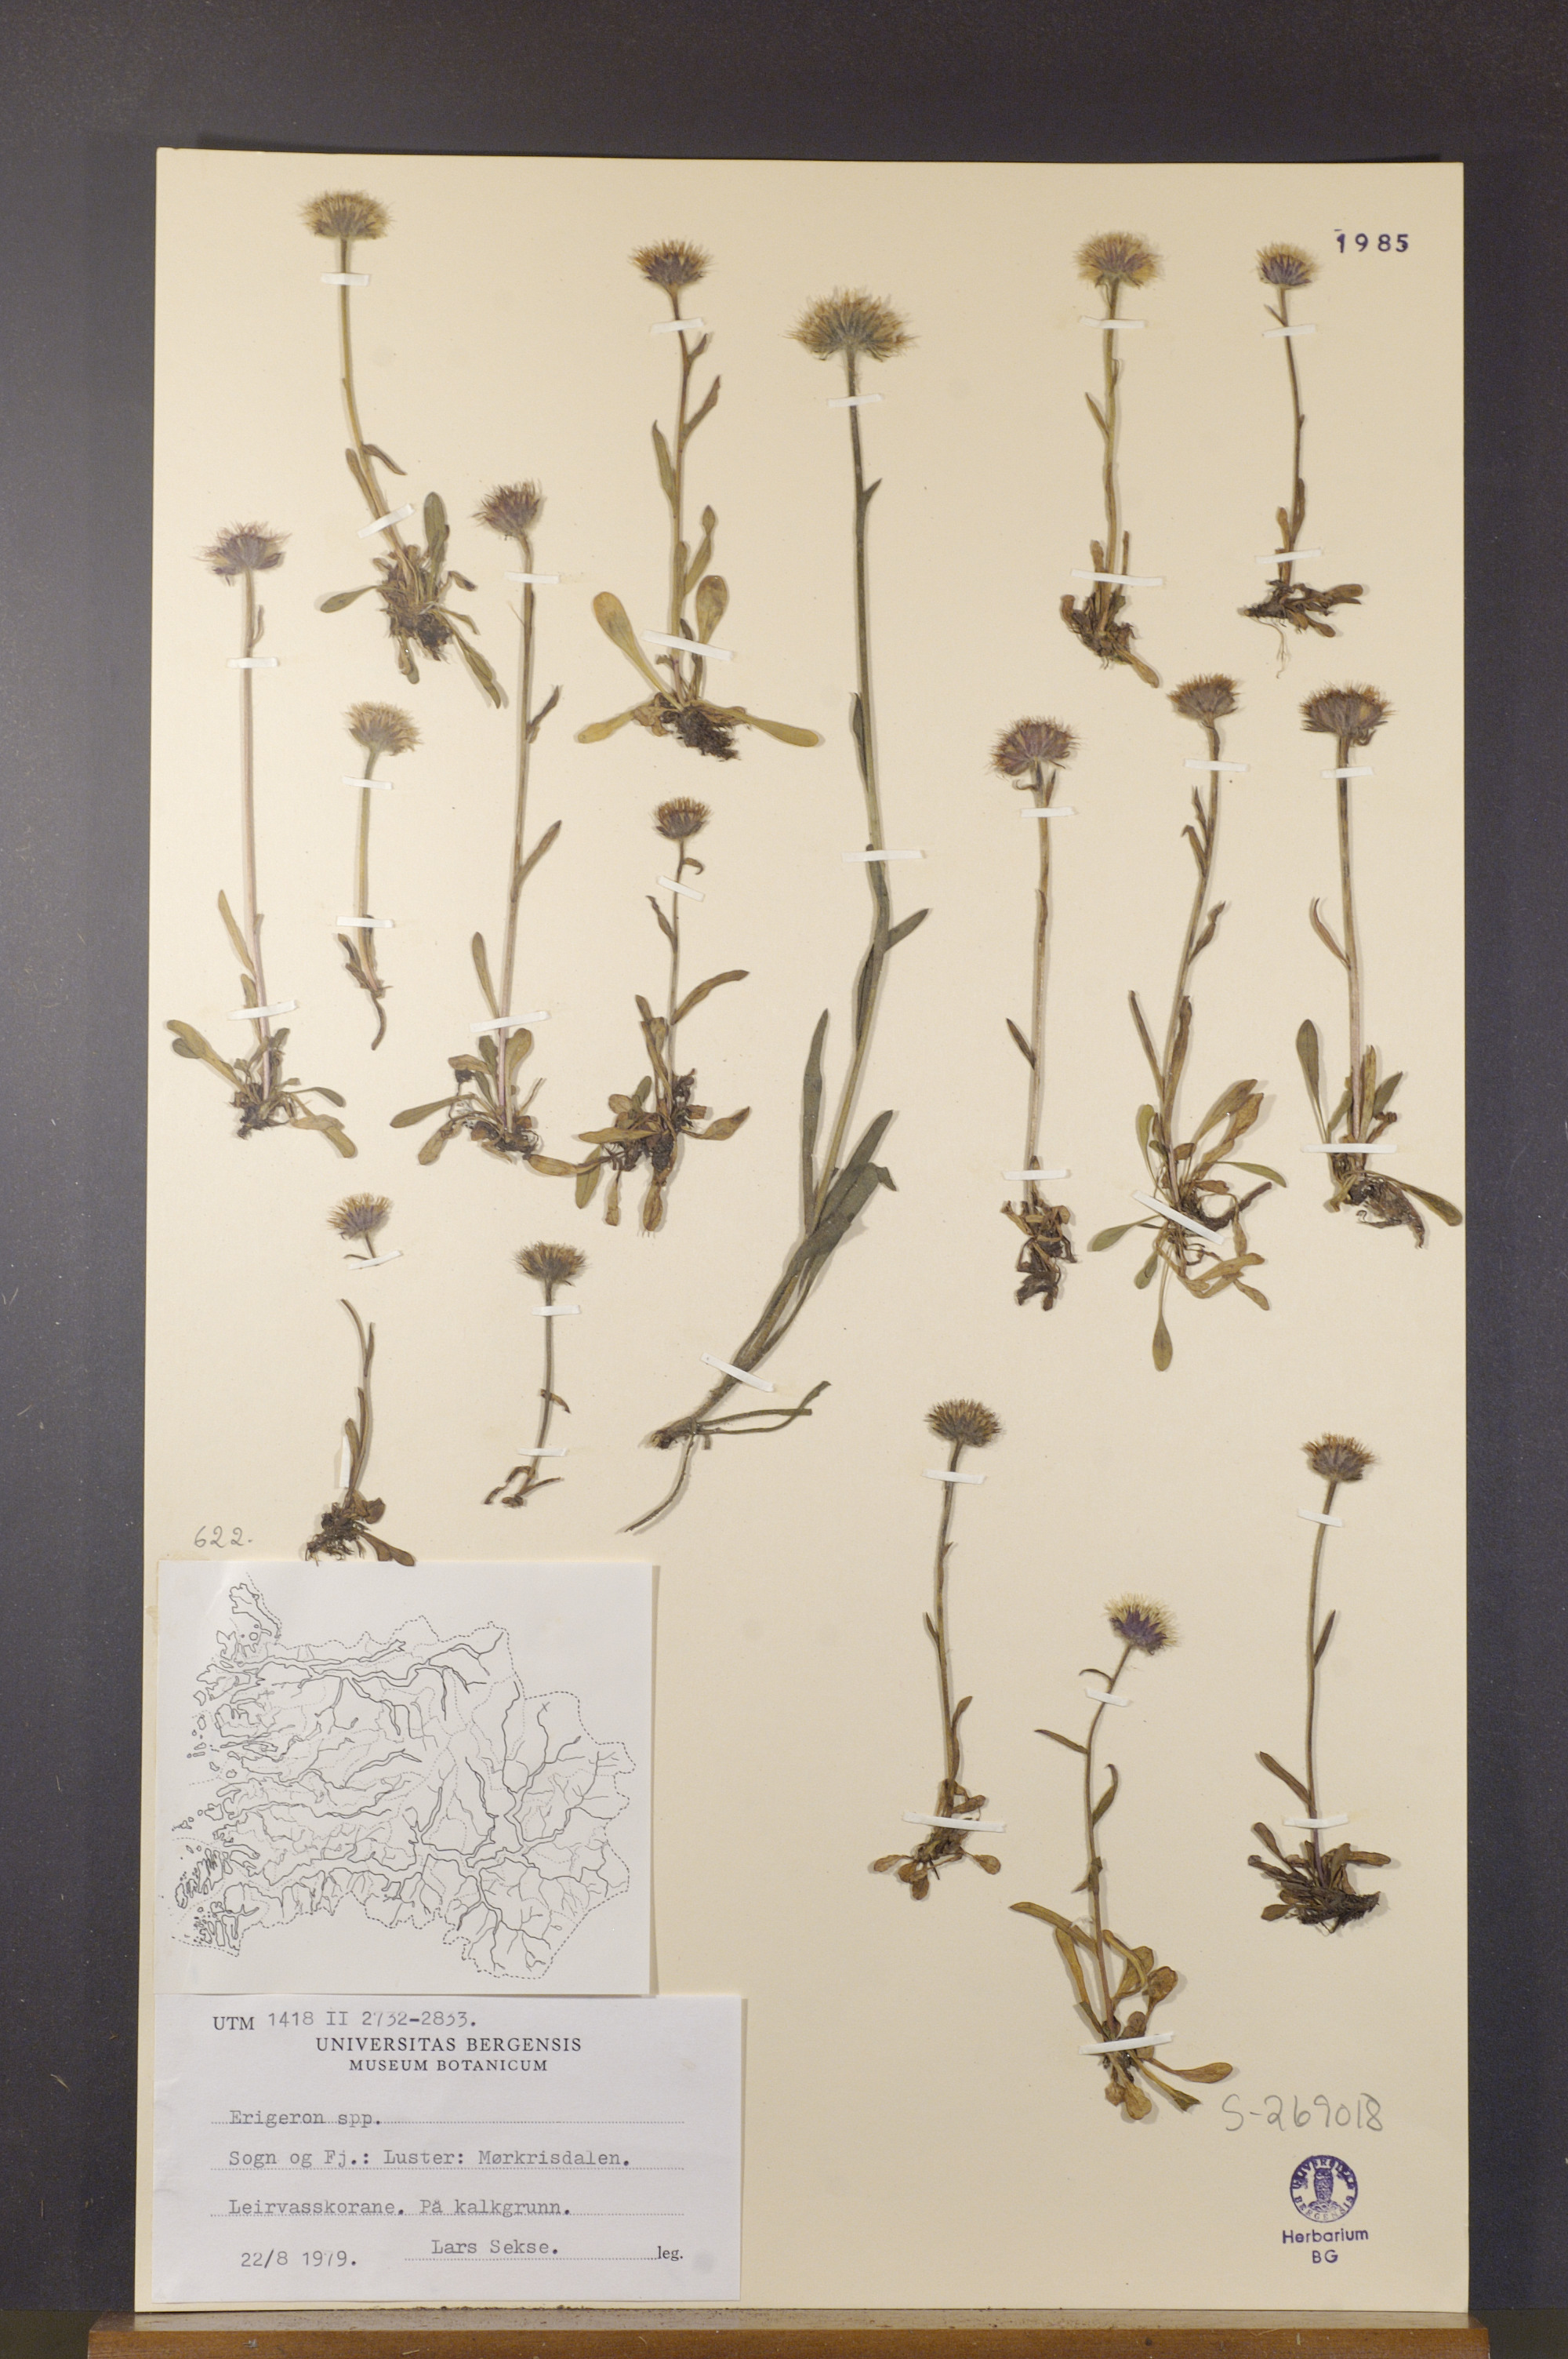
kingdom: Plantae
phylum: Tracheophyta
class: Magnoliopsida
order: Asterales
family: Asteraceae
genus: Erigeron
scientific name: Erigeron
